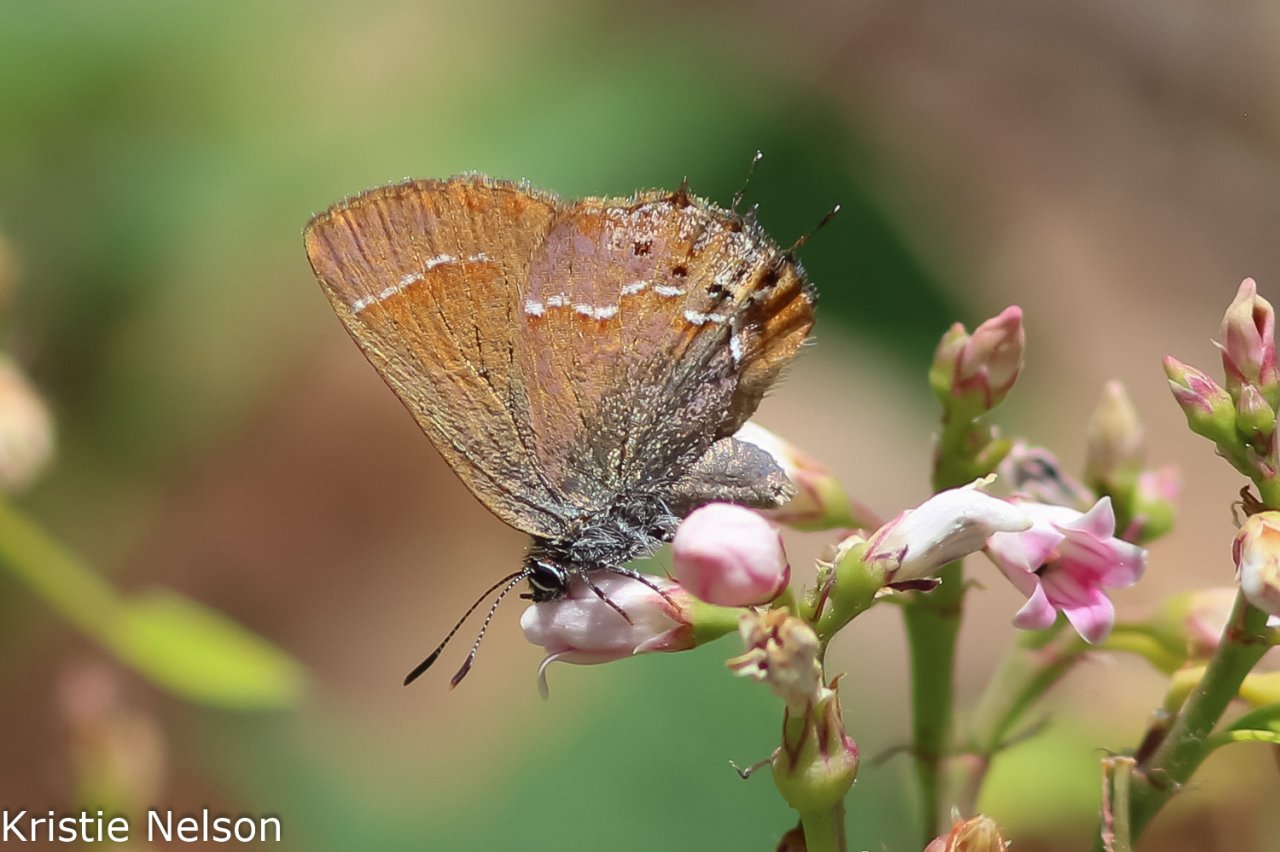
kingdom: Animalia
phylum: Arthropoda
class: Insecta
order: Lepidoptera
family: Lycaenidae
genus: Mitoura
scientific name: Mitoura gryneus
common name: Juniper Hairstreak
